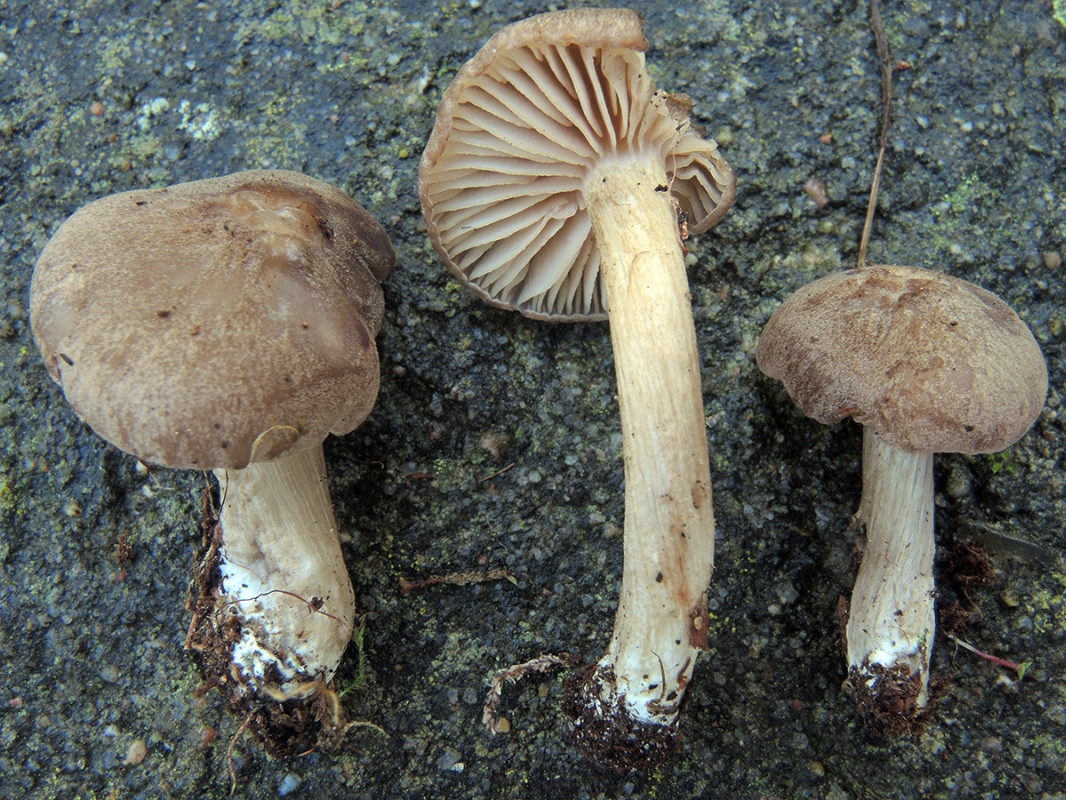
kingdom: Fungi
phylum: Basidiomycota
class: Agaricomycetes
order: Agaricales
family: Entolomataceae
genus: Entoloma
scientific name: Entoloma elodes
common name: mørkægget rødblad
